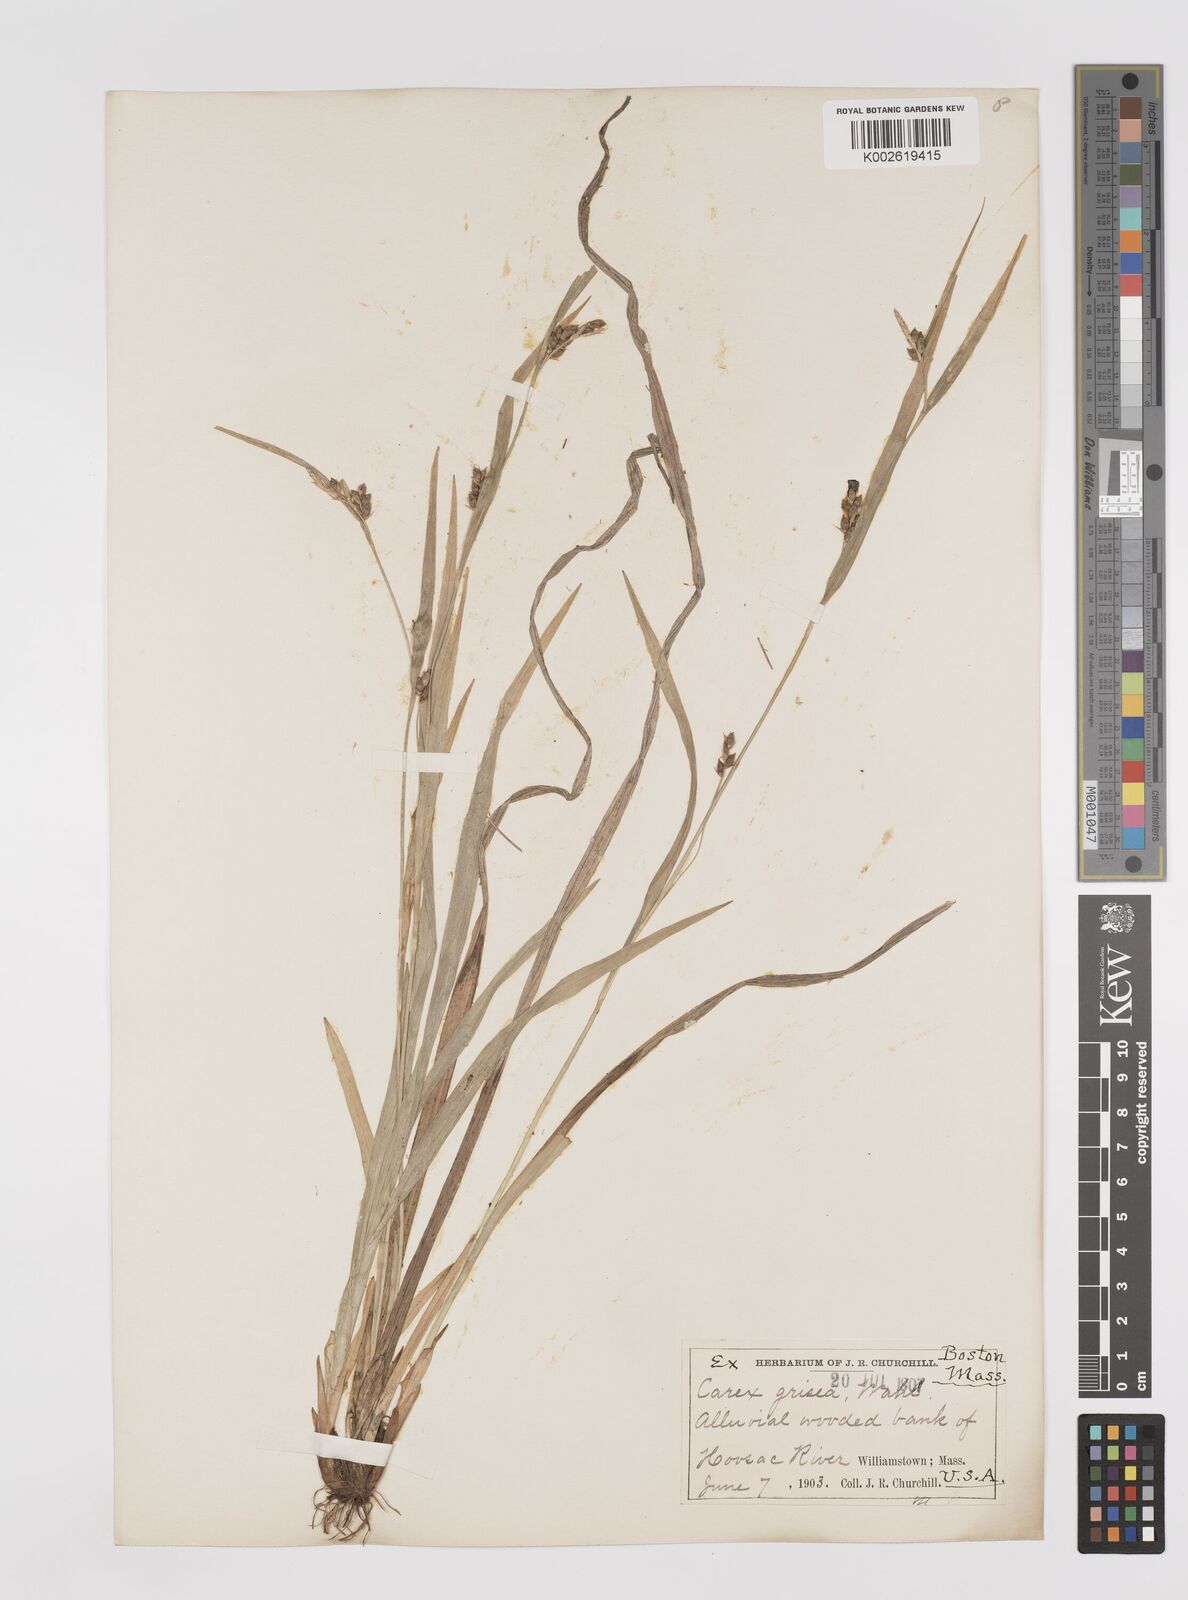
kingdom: Plantae
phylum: Tracheophyta
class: Liliopsida
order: Poales
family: Cyperaceae
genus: Carex
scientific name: Carex grisea
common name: Eastern narrow-leaved sedge
